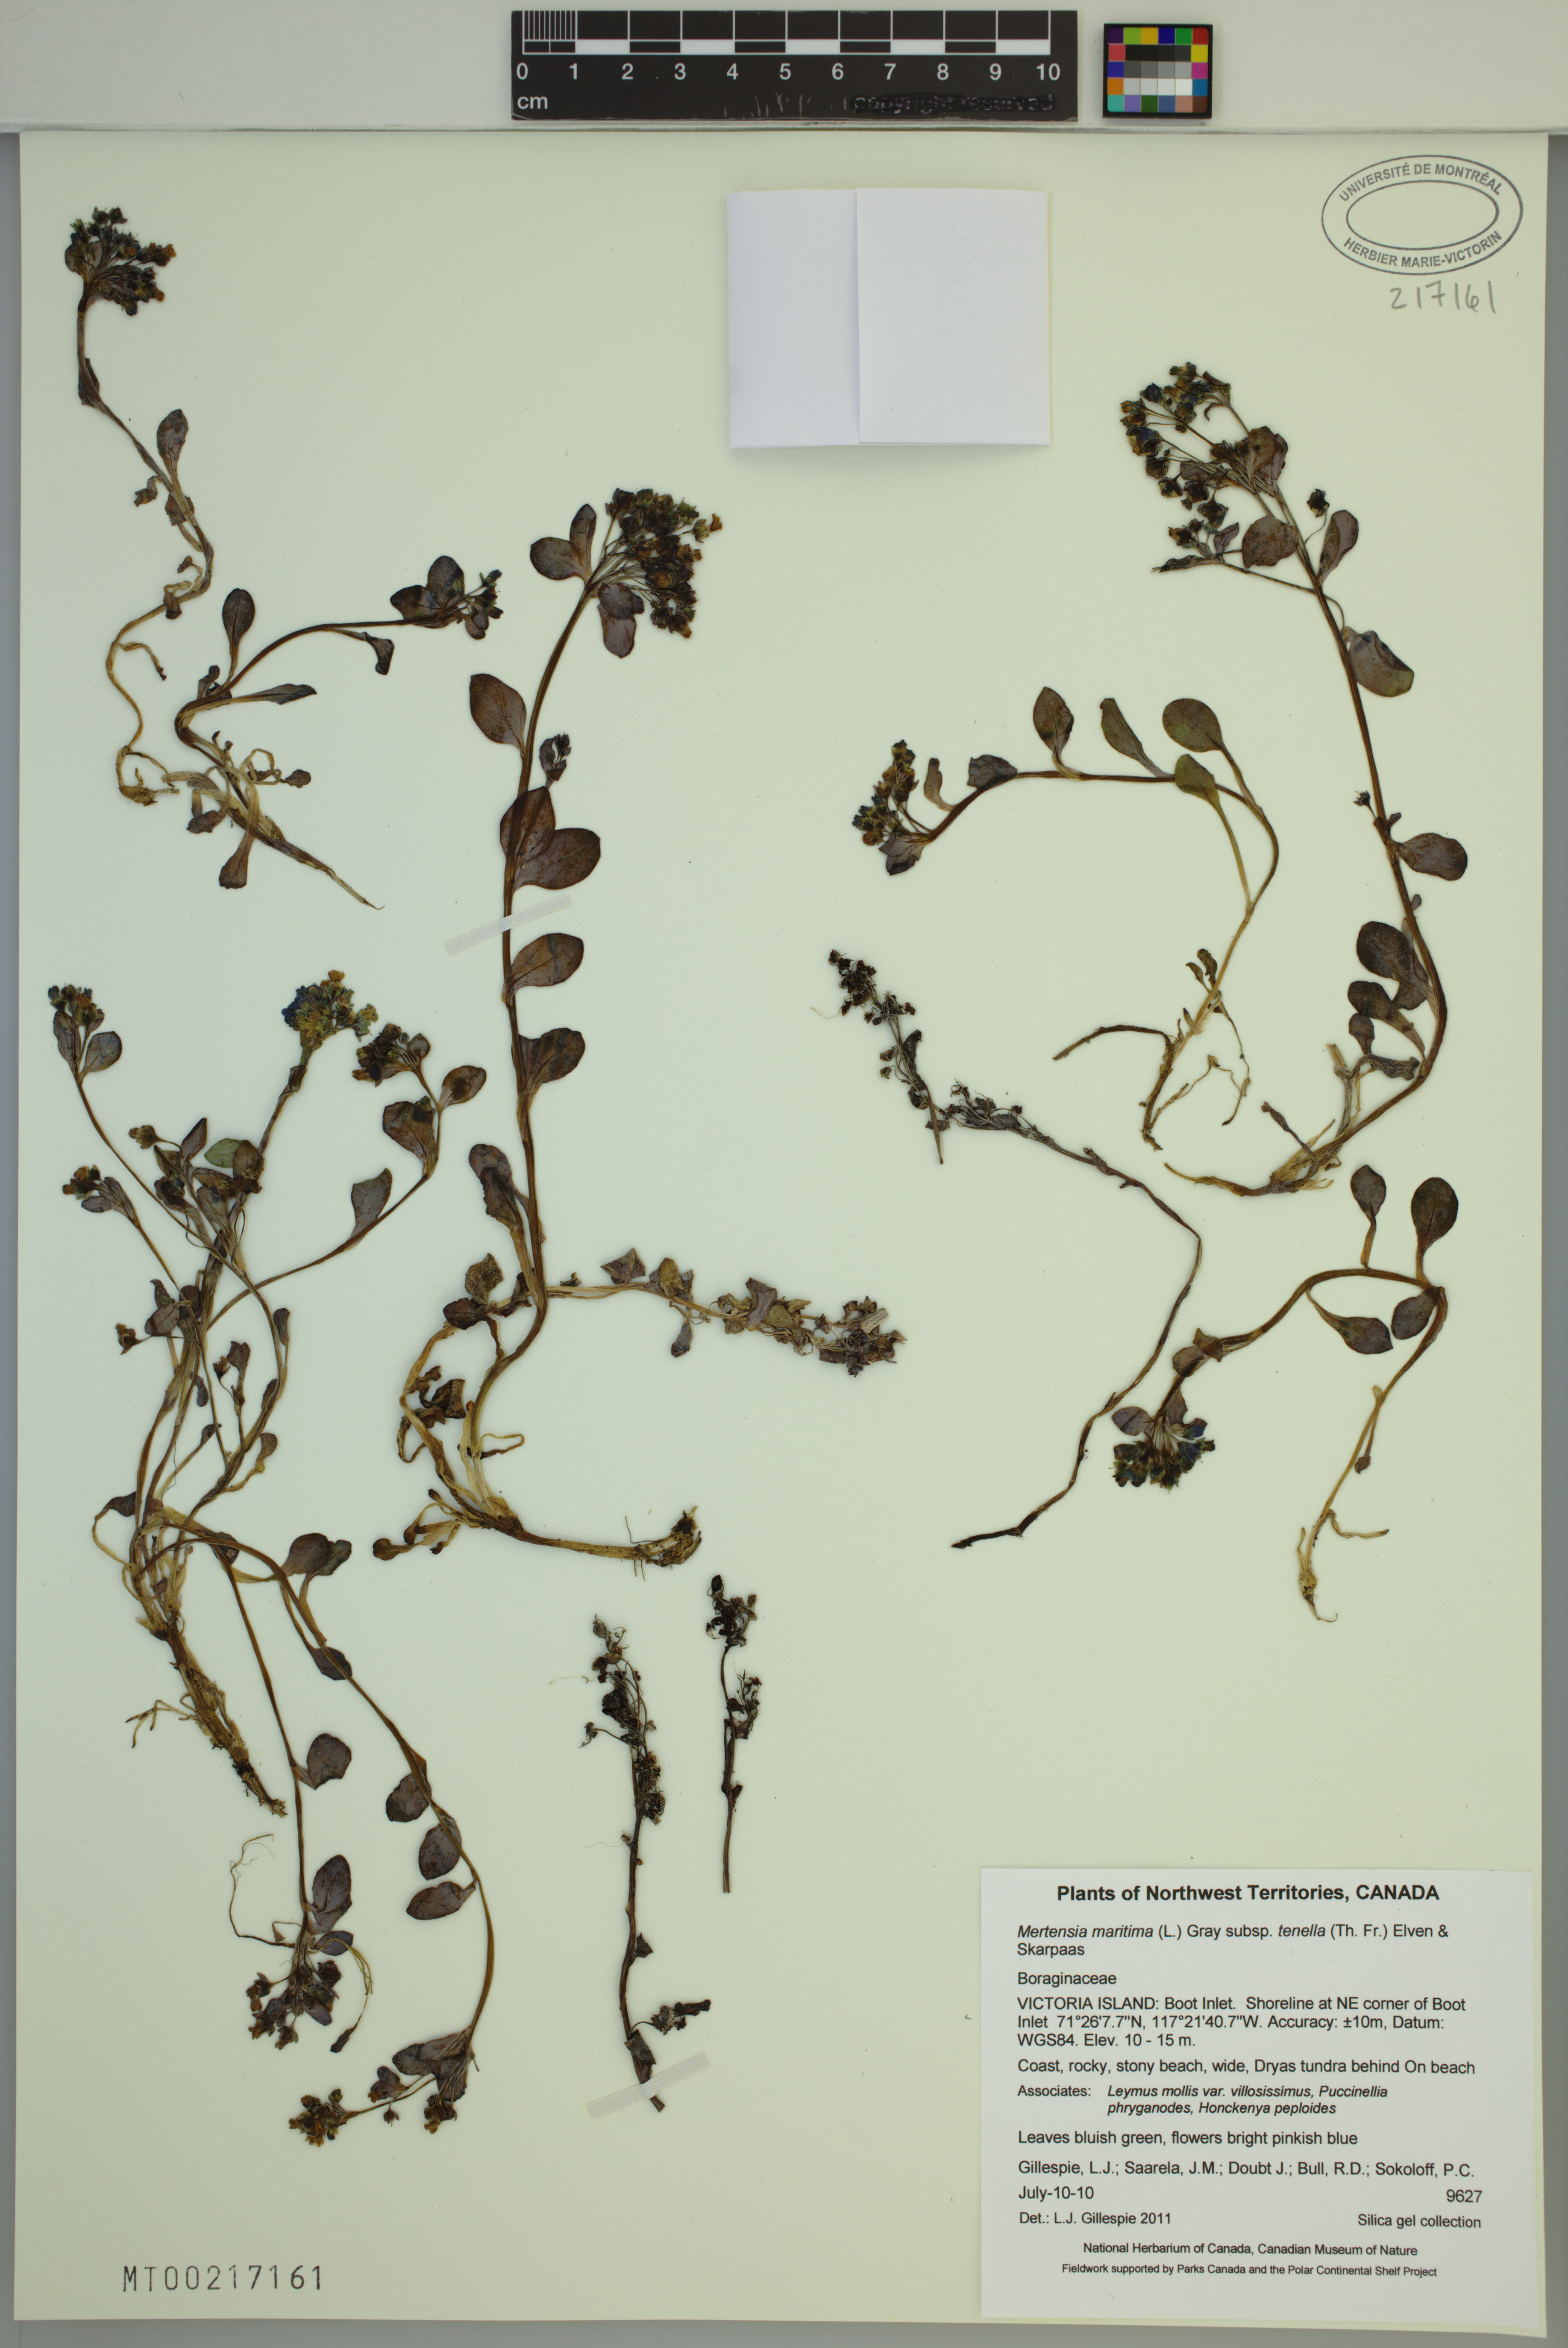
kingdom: Plantae
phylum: Tracheophyta
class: Magnoliopsida
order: Boraginales
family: Boraginaceae
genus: Mertensia
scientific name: Mertensia maritima
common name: Oysterplant
